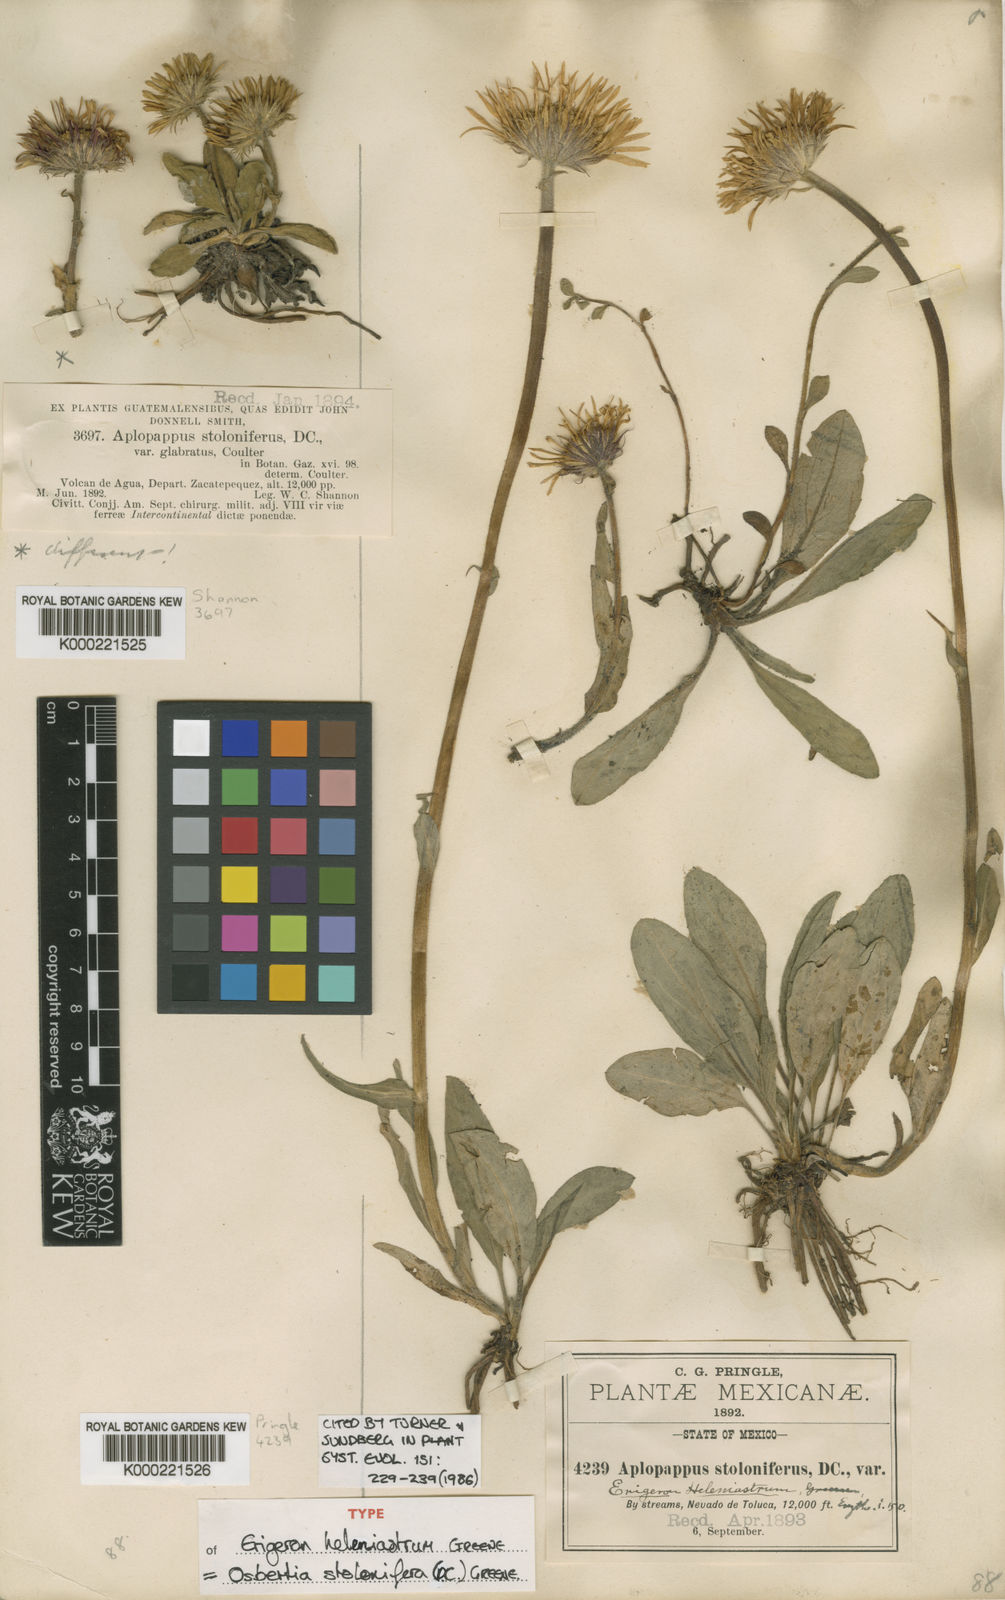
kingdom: Plantae
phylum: Tracheophyta
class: Magnoliopsida
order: Asterales
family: Asteraceae
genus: Osbertia
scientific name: Osbertia stolonifera
